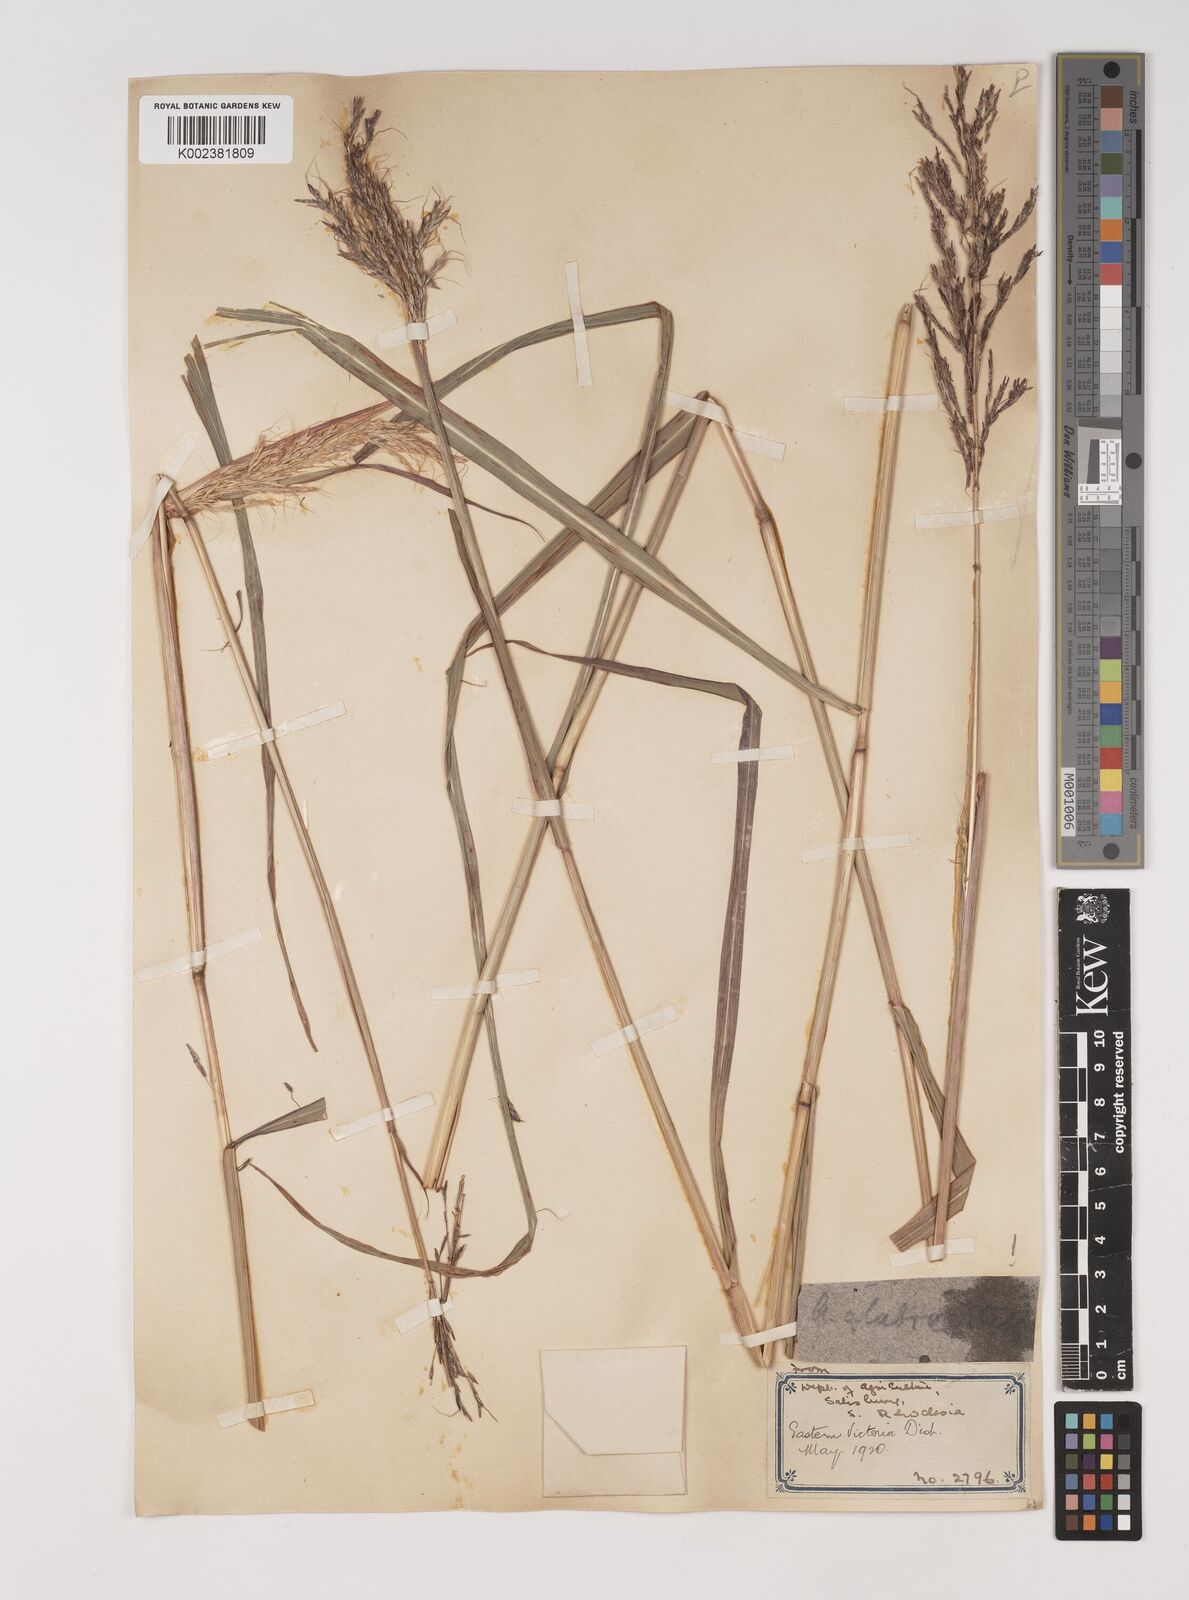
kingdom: Plantae
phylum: Tracheophyta
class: Liliopsida
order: Poales
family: Poaceae
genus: Bothriochloa
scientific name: Bothriochloa bladhii
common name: Caucasian bluestem
